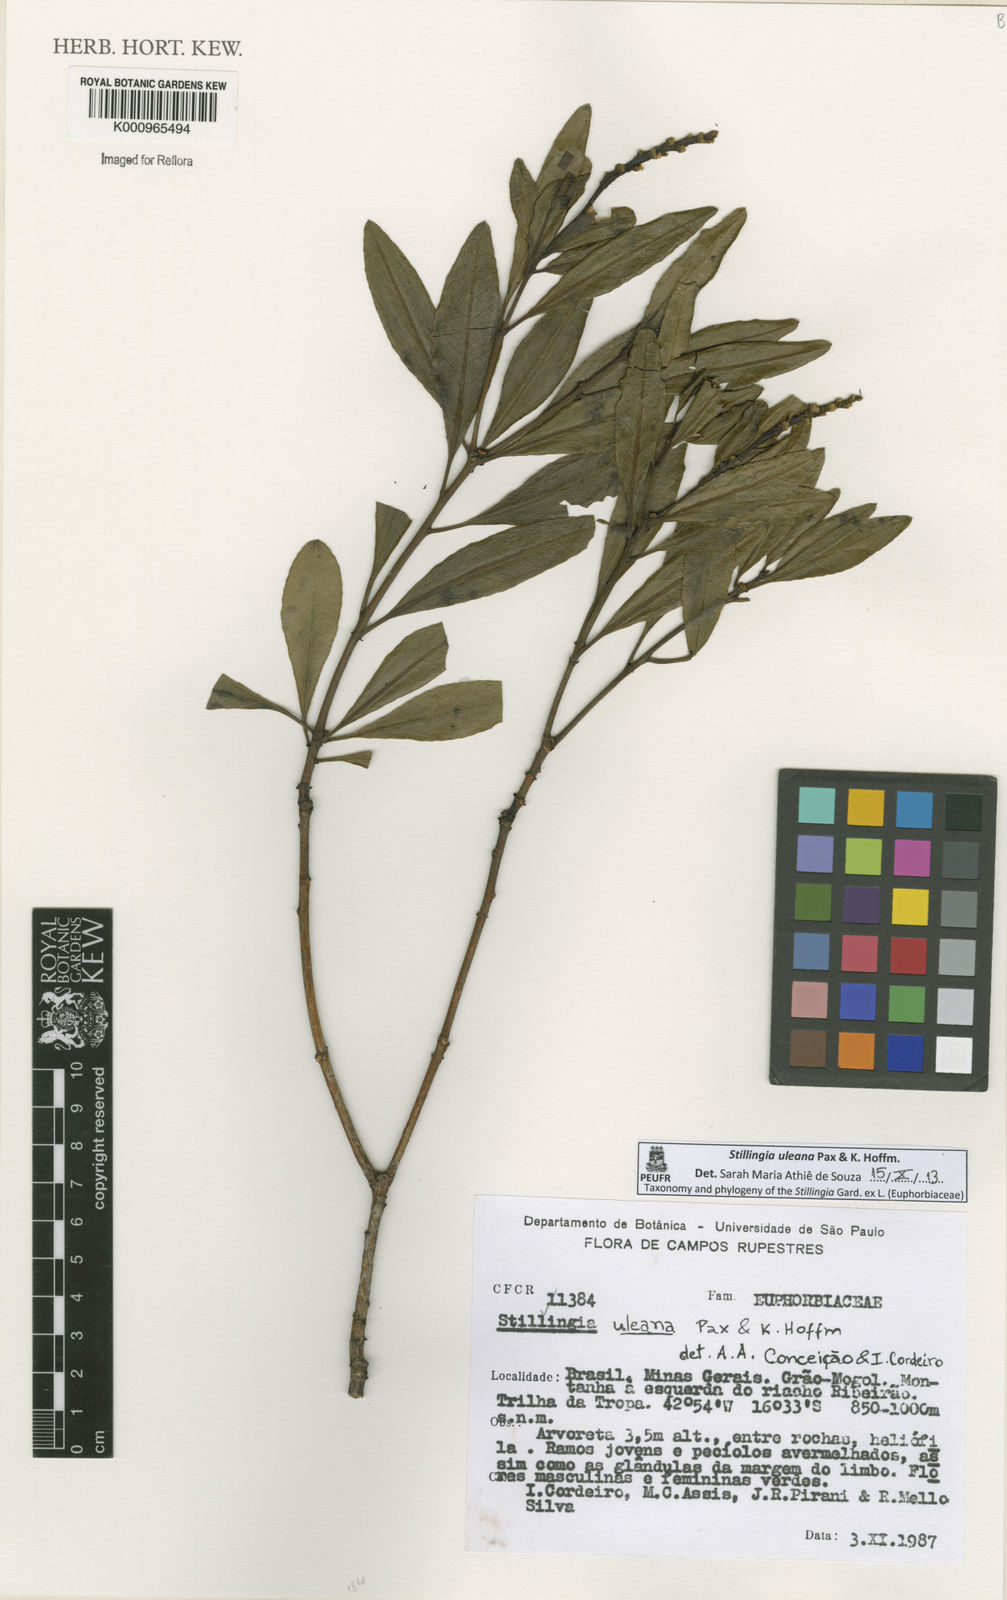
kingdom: Plantae
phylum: Tracheophyta
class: Magnoliopsida
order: Malpighiales
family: Euphorbiaceae
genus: Stillingia
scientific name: Stillingia uleana
